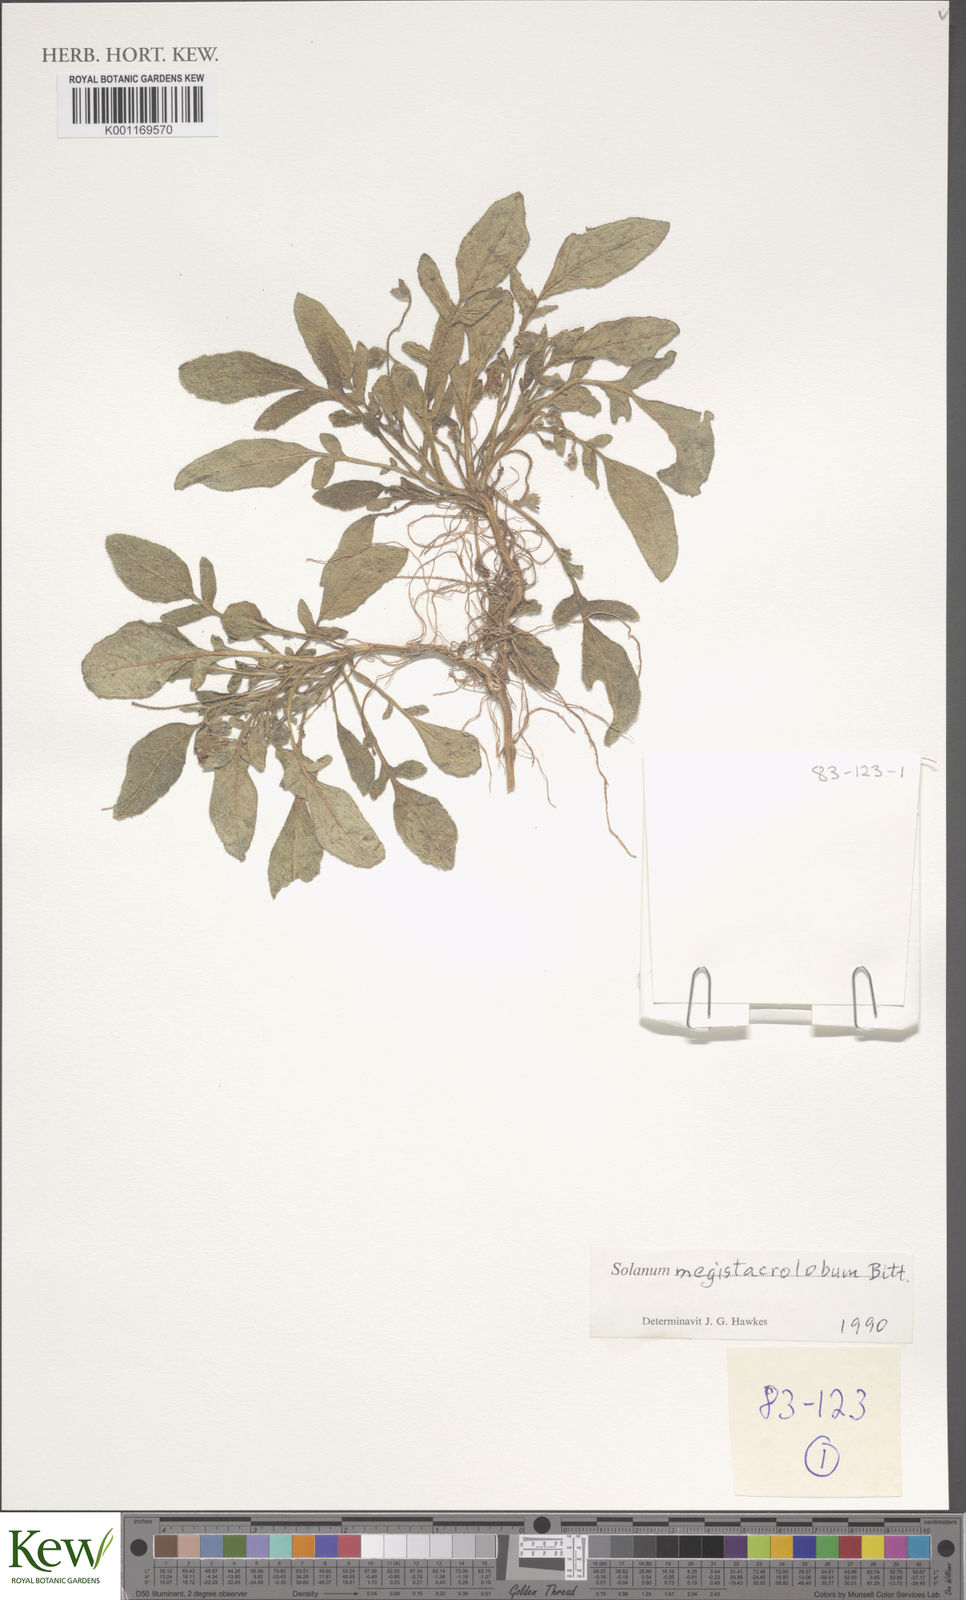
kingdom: Plantae
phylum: Tracheophyta
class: Magnoliopsida
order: Solanales
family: Solanaceae
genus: Solanum
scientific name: Solanum boliviense
